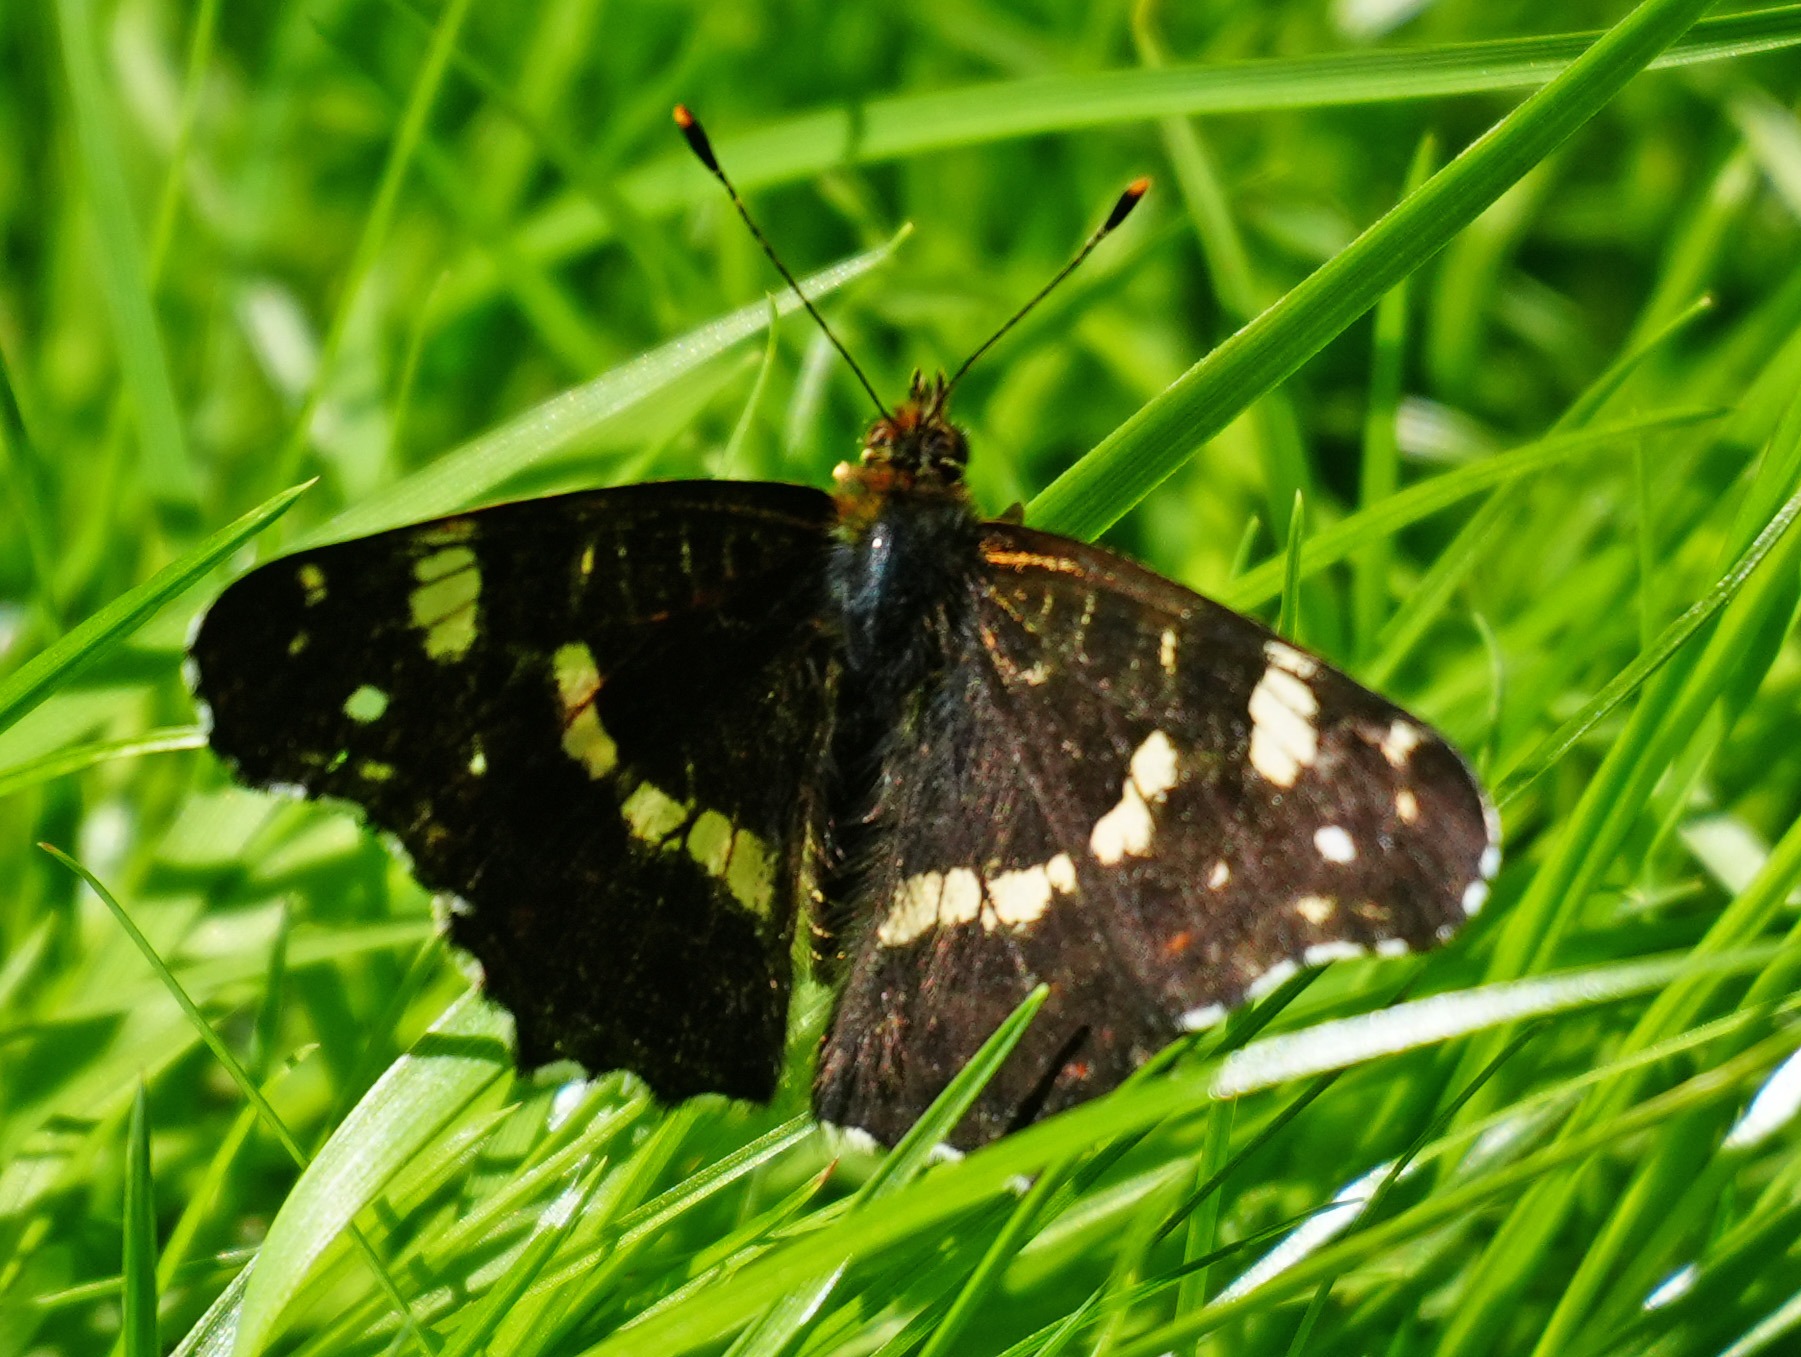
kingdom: Animalia
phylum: Arthropoda
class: Insecta
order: Lepidoptera
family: Nymphalidae
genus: Araschnia
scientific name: Araschnia levana
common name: Nældesommerfugl
